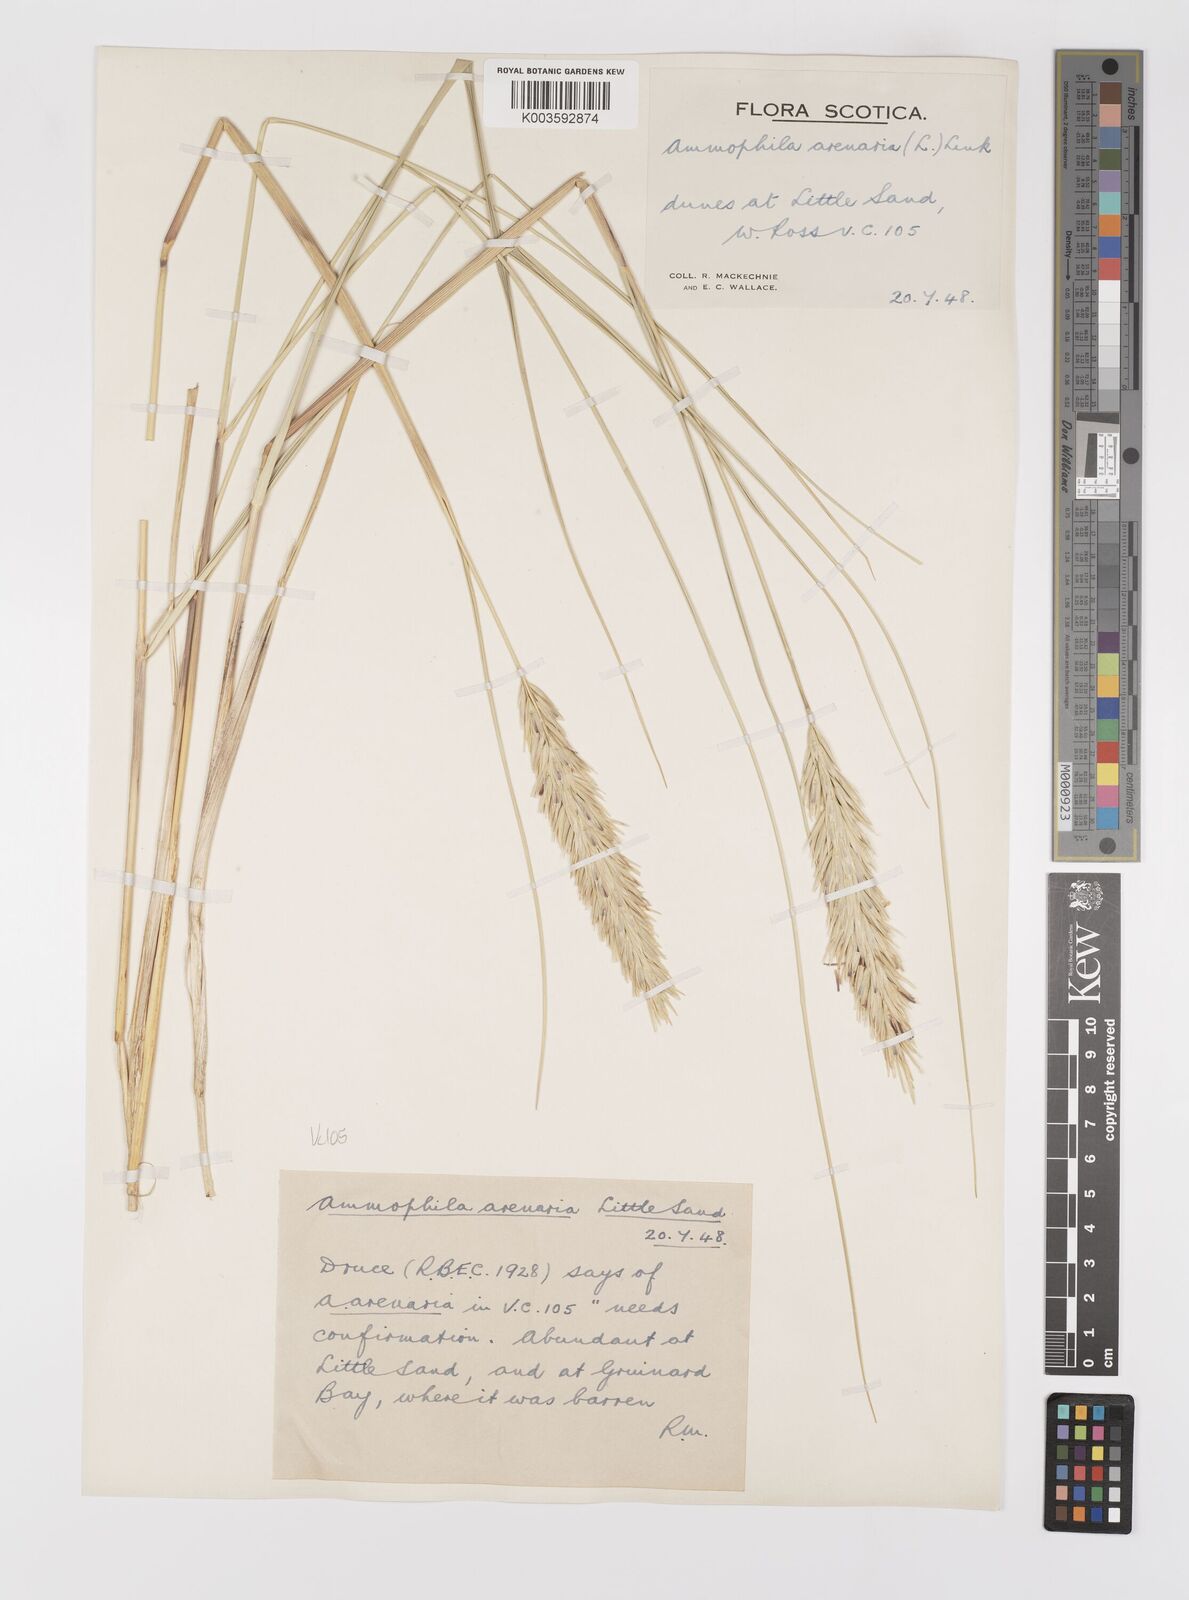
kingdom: Plantae
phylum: Tracheophyta
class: Liliopsida
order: Poales
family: Poaceae
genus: Calamagrostis
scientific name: Calamagrostis arenaria
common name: European beachgrass
